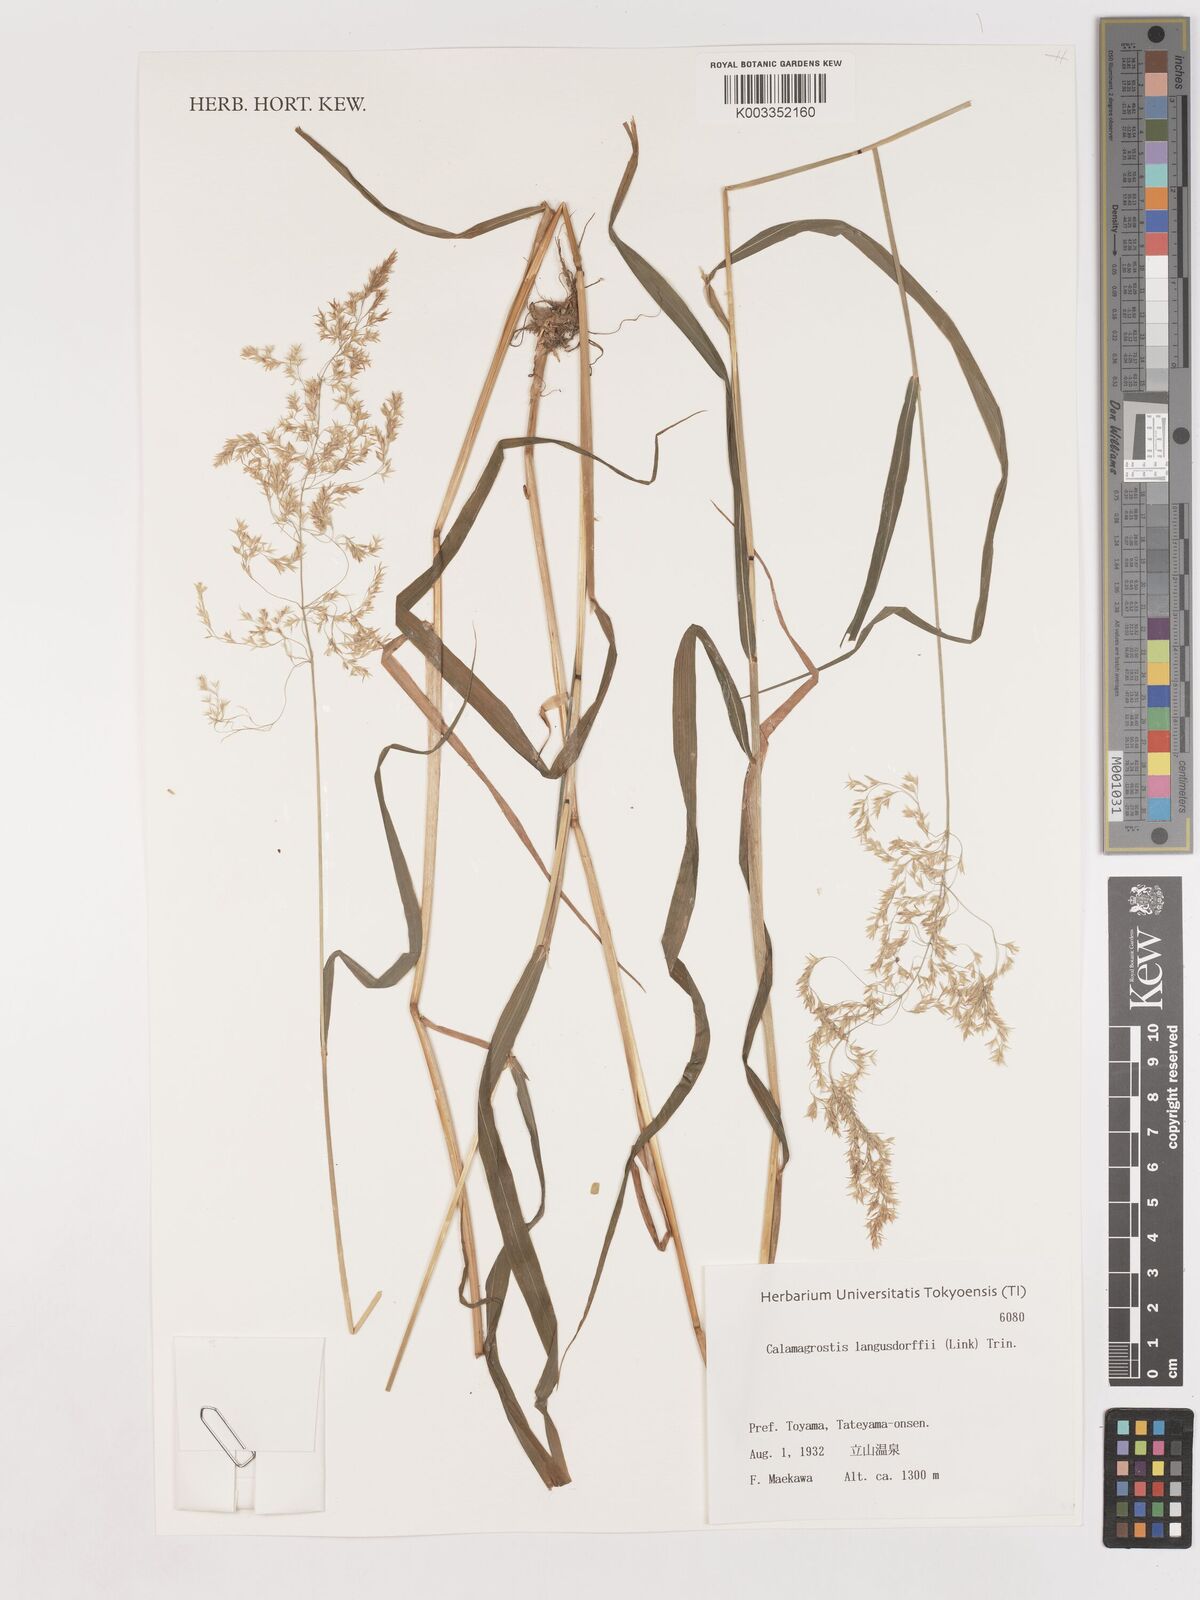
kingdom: Plantae
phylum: Tracheophyta
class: Liliopsida
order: Poales
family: Poaceae
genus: Calamagrostis
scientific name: Calamagrostis purpurea
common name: Scandinavian small-reed
